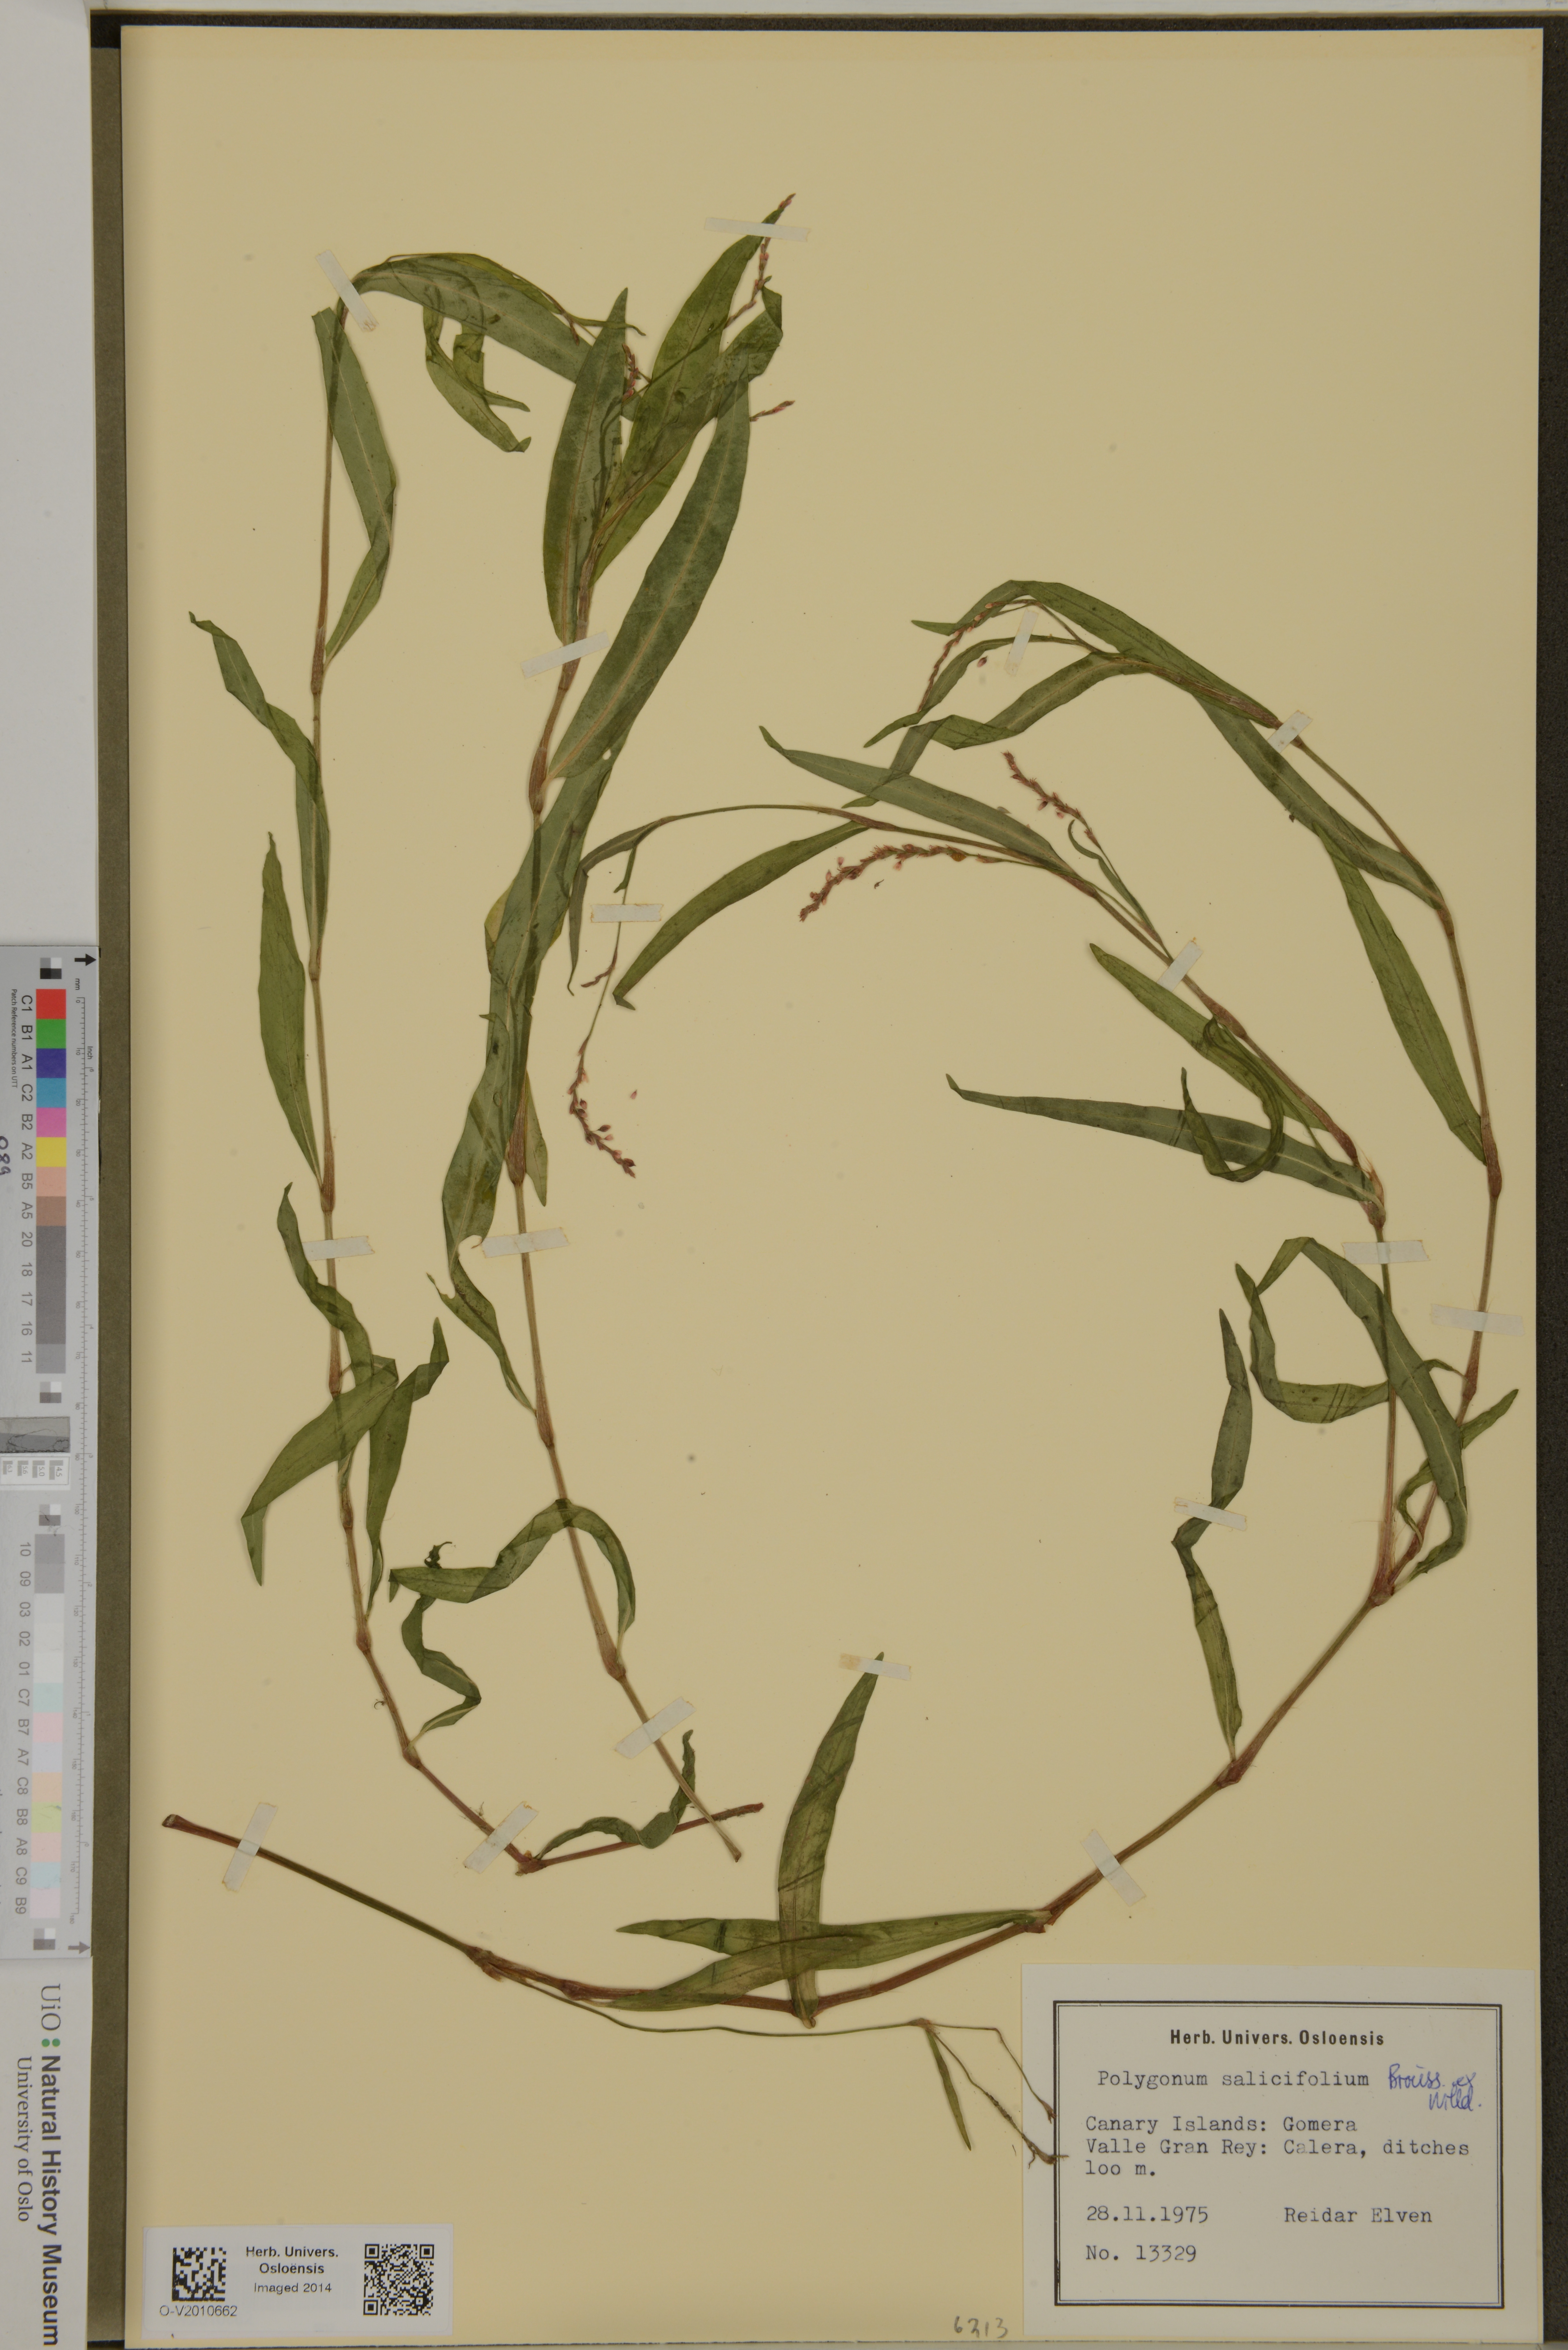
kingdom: Plantae
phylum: Tracheophyta
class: Magnoliopsida
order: Caryophyllales
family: Polygonaceae
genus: Persicaria
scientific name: Persicaria salicifolia
